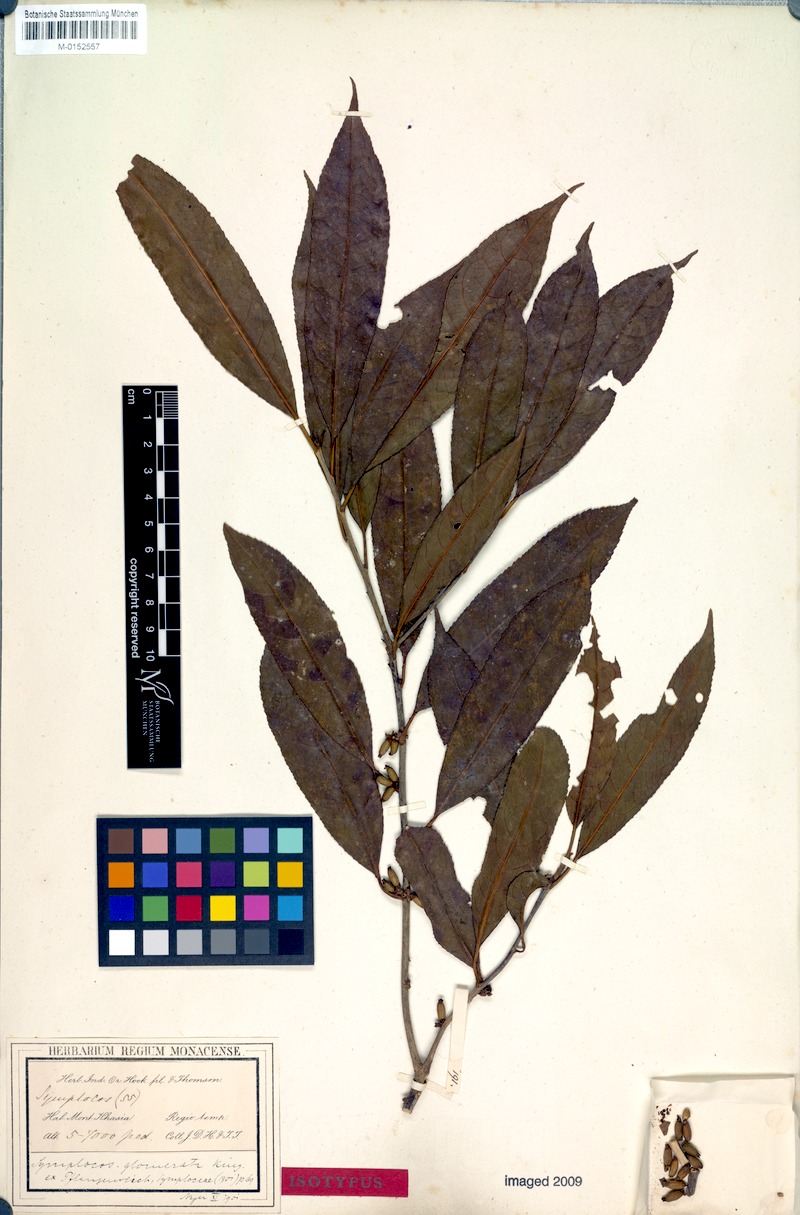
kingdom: Plantae
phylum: Tracheophyta
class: Magnoliopsida
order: Ericales
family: Symplocaceae
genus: Symplocos
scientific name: Symplocos glomerata
